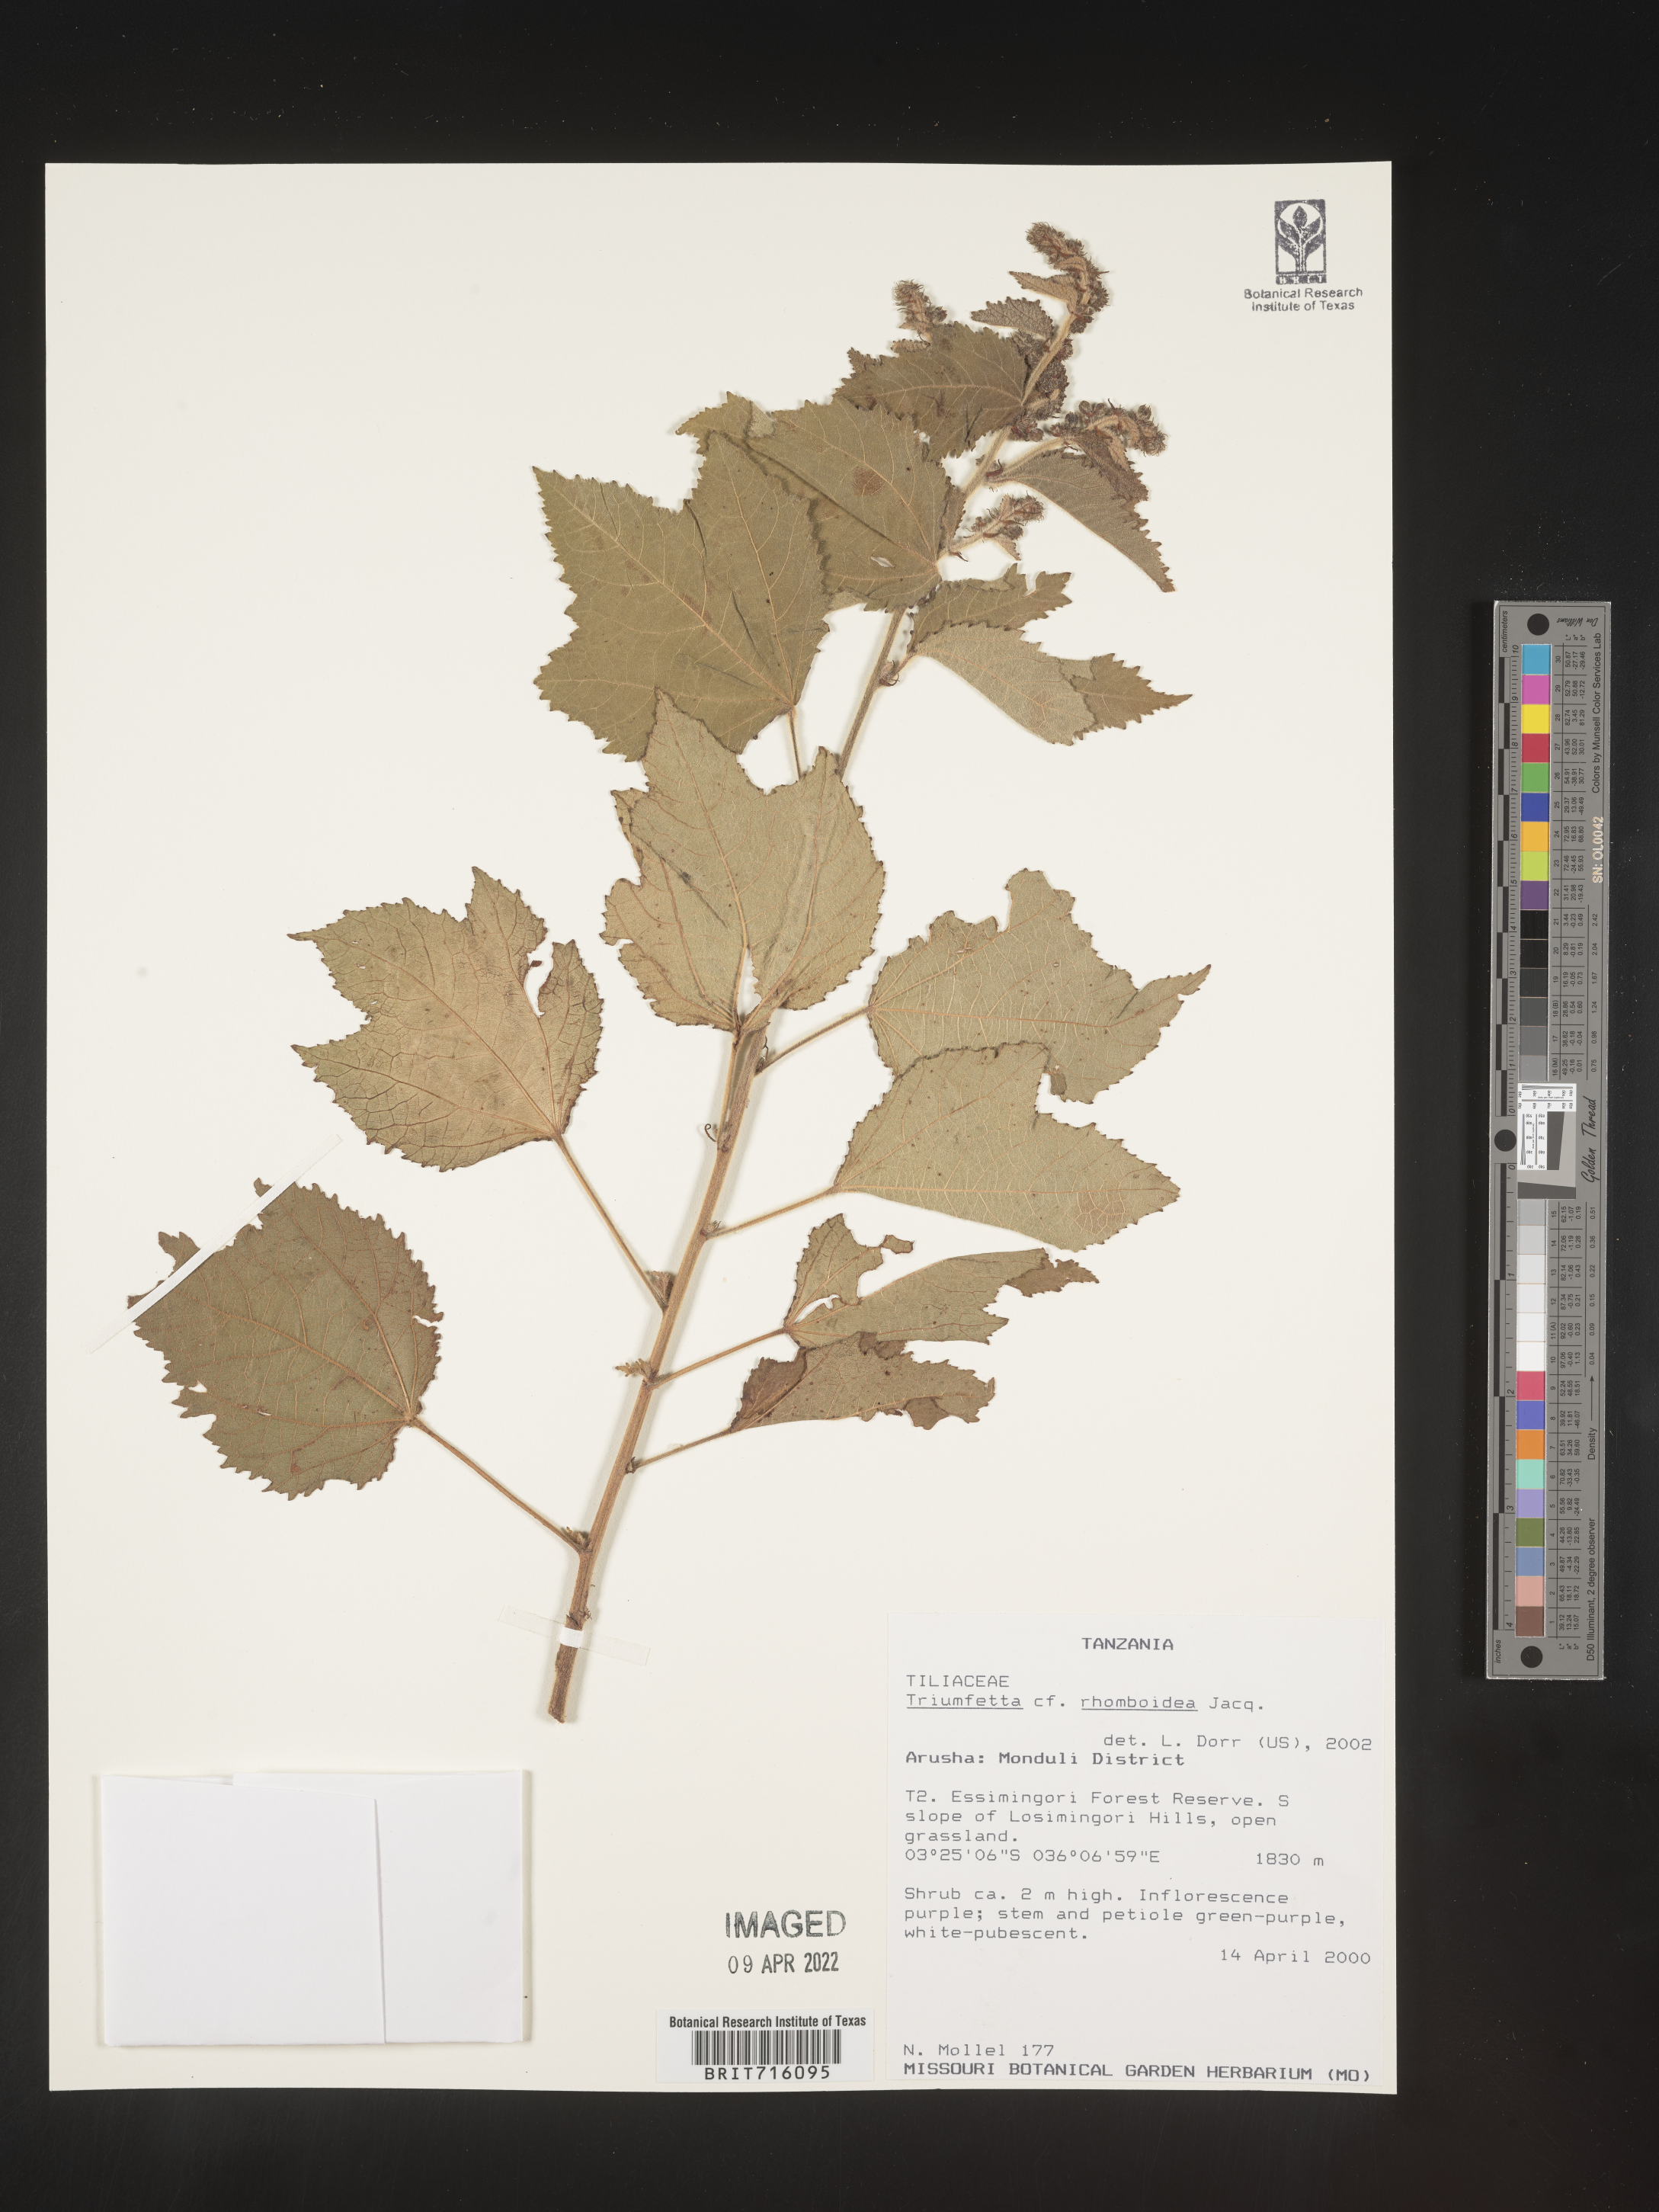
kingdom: Plantae
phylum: Tracheophyta
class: Magnoliopsida
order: Malvales
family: Malvaceae
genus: Triumfetta
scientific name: Triumfetta rhomboidea
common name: Diamond burbark
